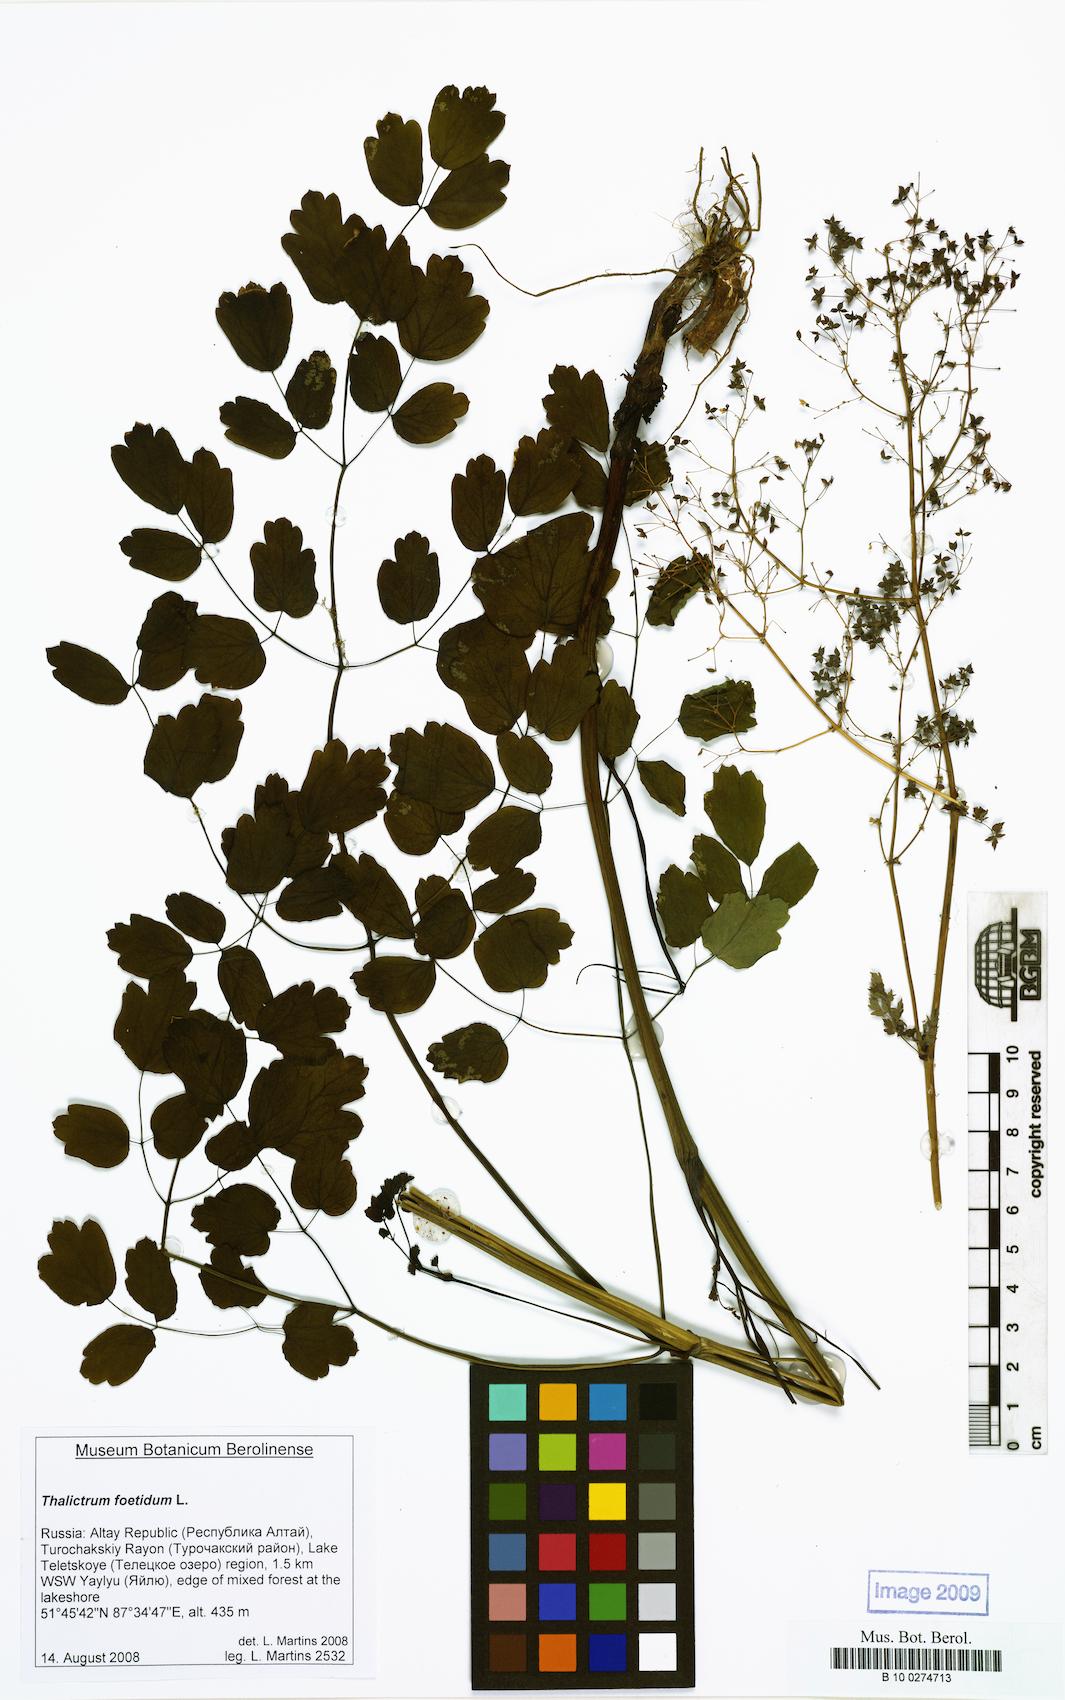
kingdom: Plantae
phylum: Tracheophyta
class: Magnoliopsida
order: Ranunculales
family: Ranunculaceae
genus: Thalictrum
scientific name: Thalictrum minus
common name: Lesser meadow-rue
